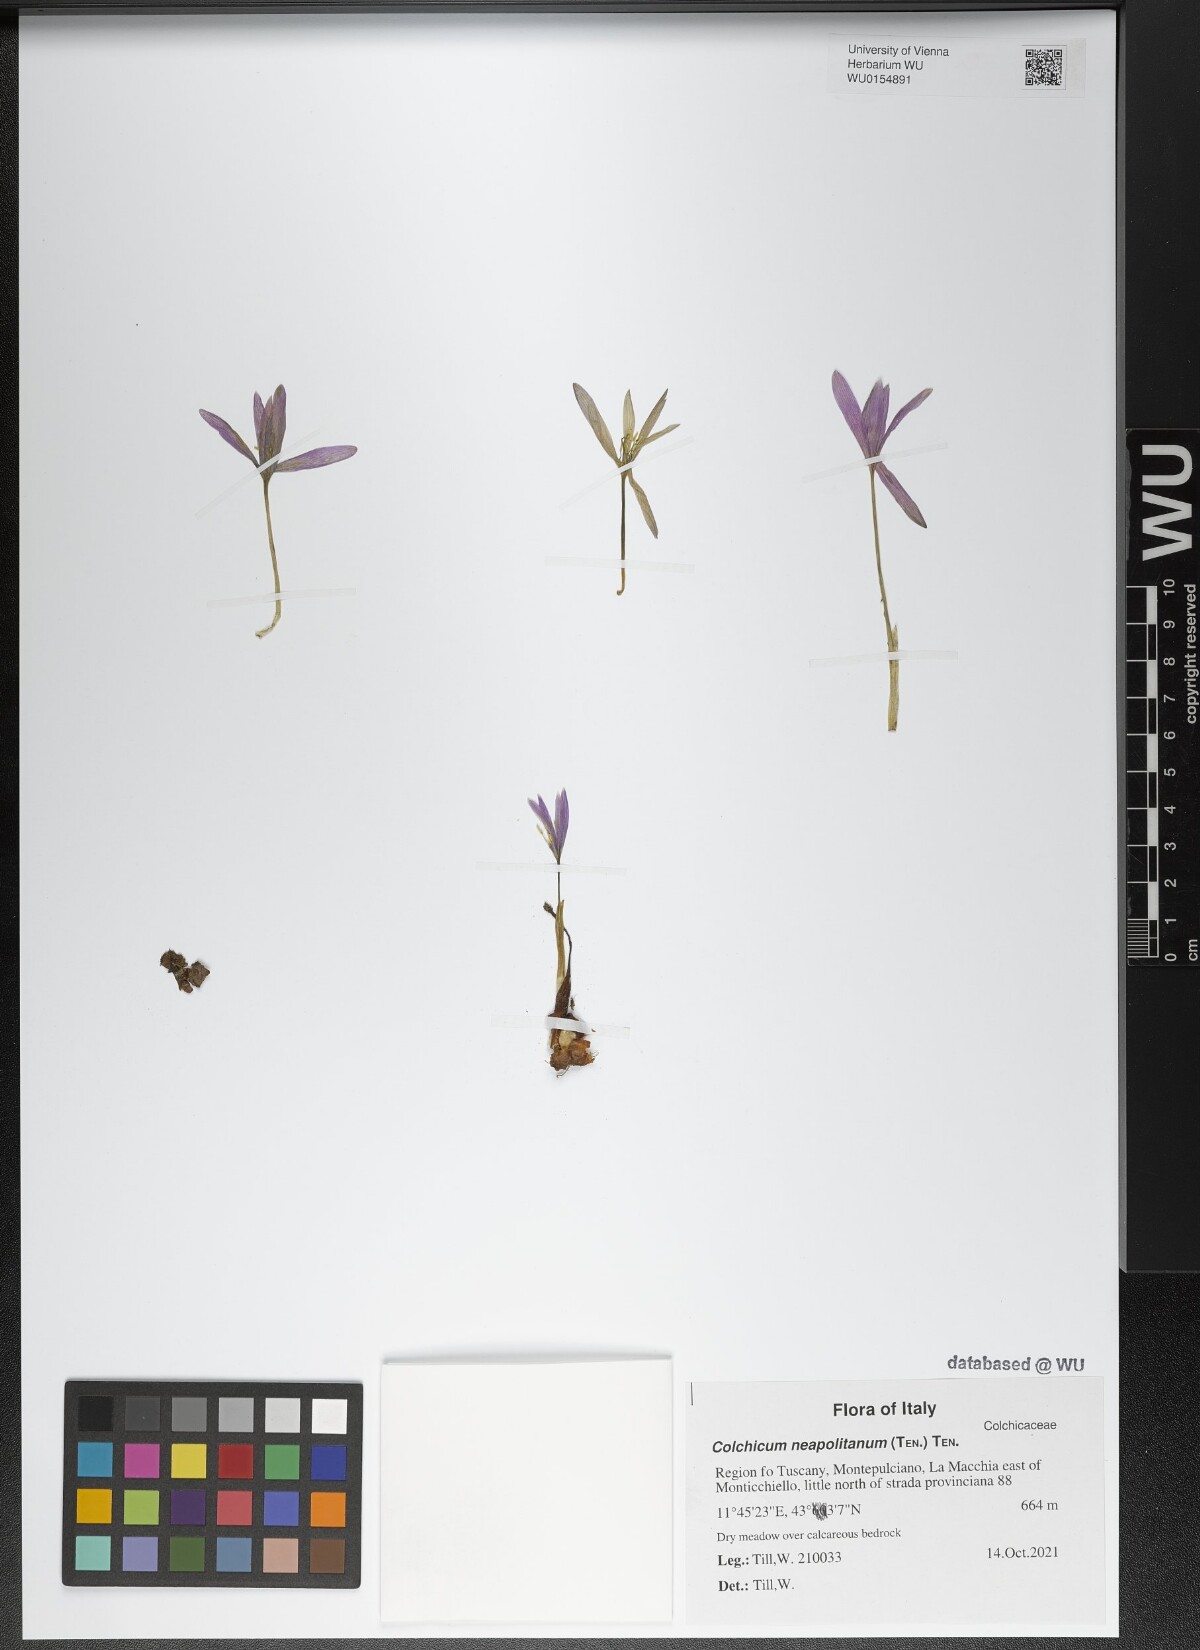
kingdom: Plantae
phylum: Tracheophyta
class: Liliopsida
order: Liliales
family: Colchicaceae
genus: Colchicum
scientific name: Colchicum neapolitanum
